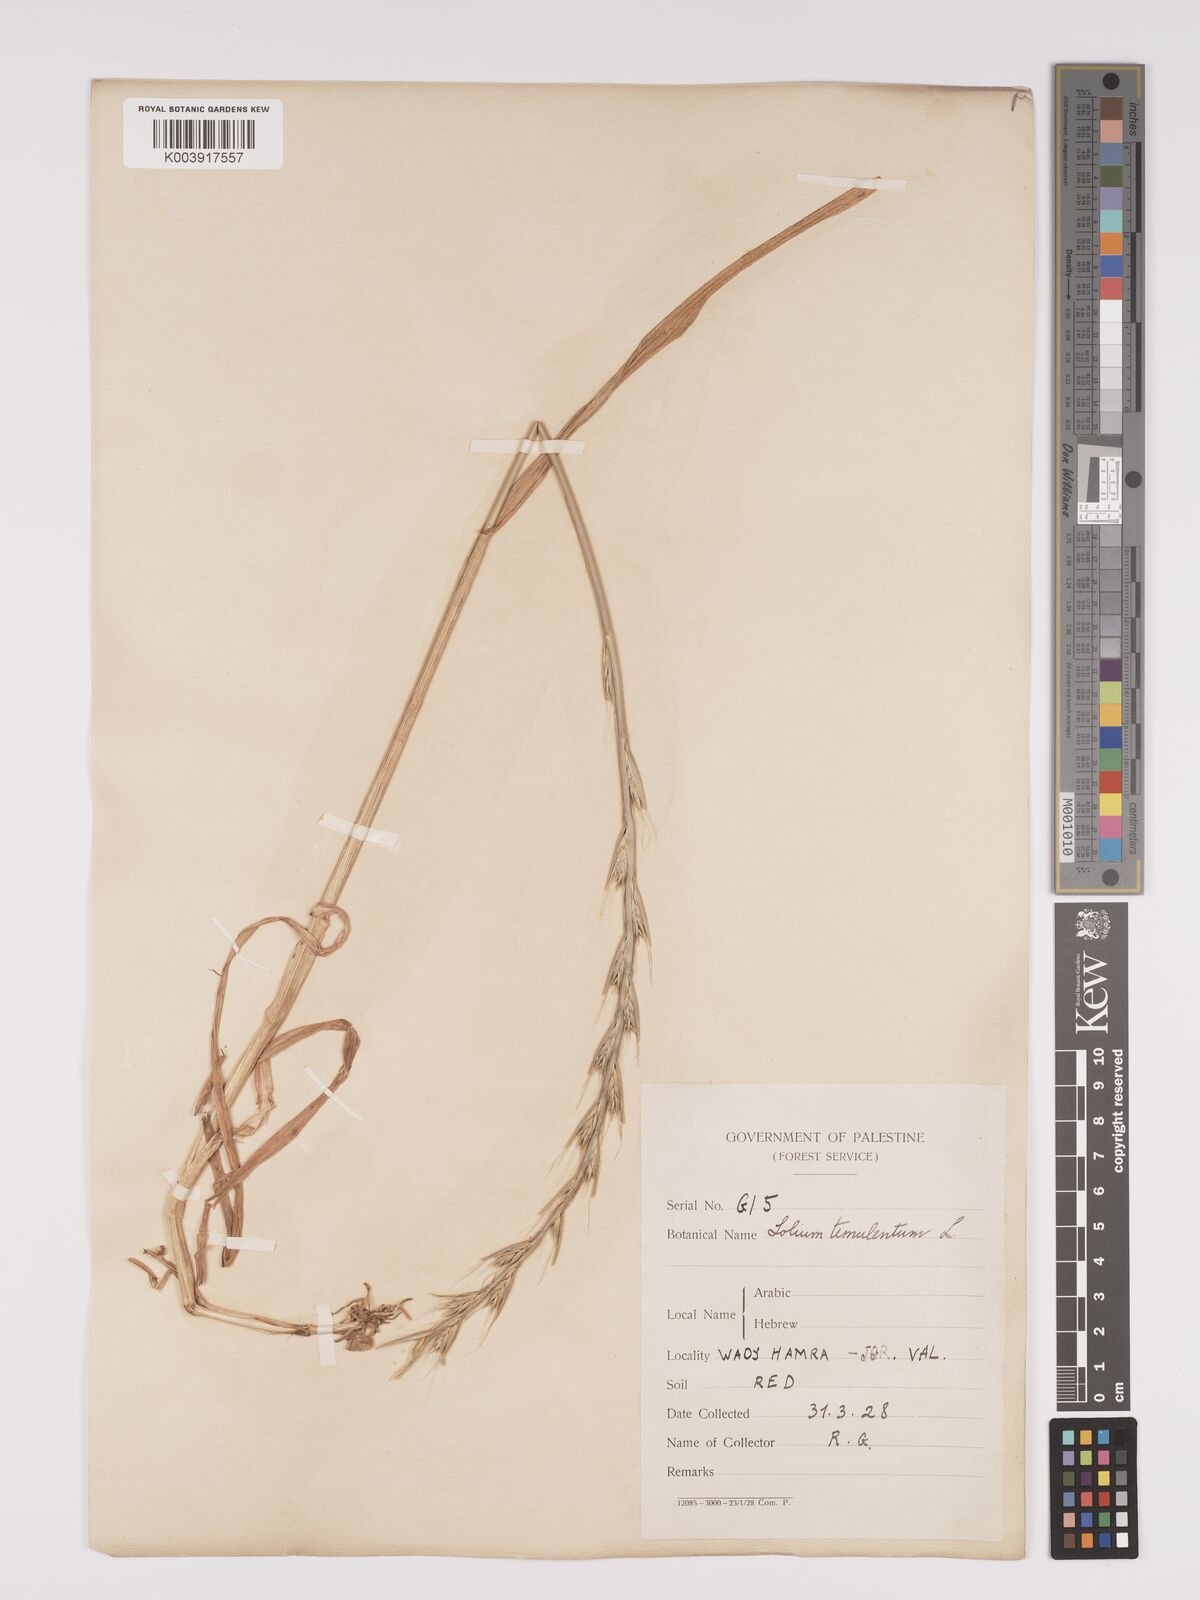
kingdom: Plantae
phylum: Tracheophyta
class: Liliopsida
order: Poales
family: Poaceae
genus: Lolium
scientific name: Lolium temulentum
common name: Darnel
